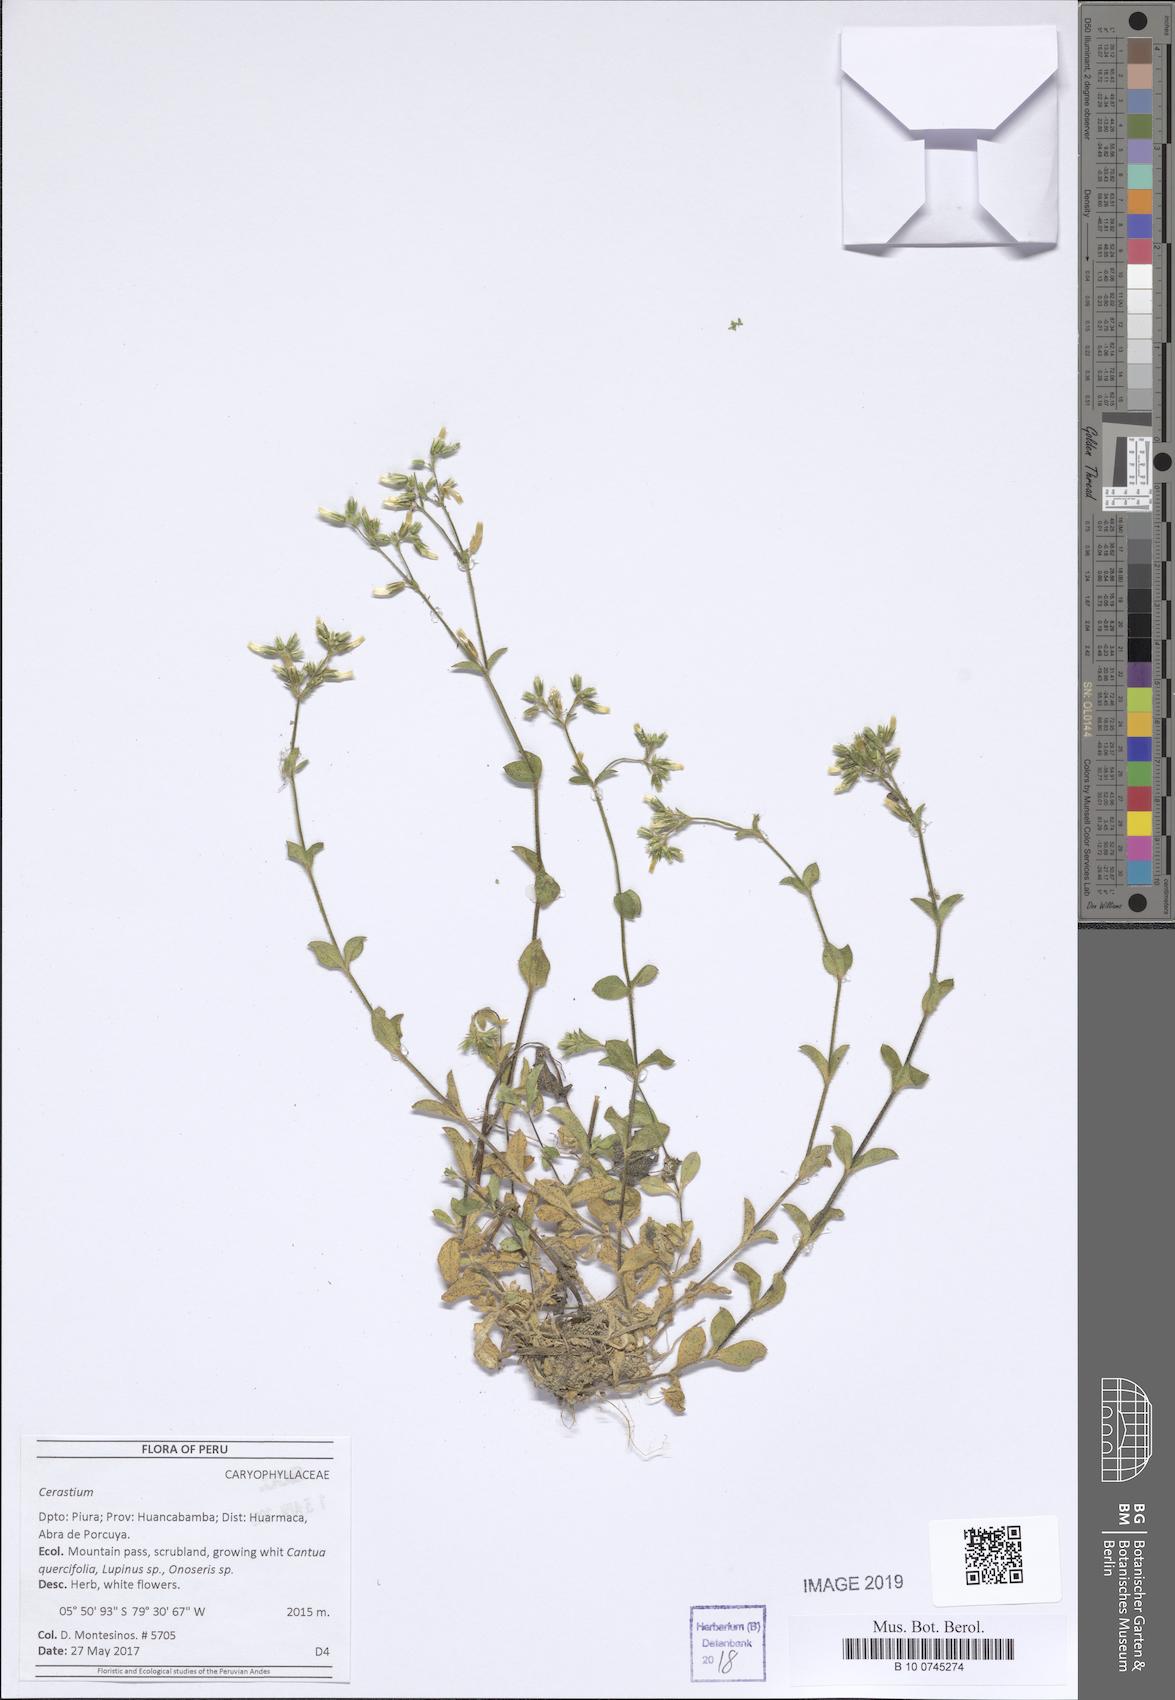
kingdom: Plantae
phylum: Tracheophyta
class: Magnoliopsida
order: Caryophyllales
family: Caryophyllaceae
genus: Cerastium
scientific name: Cerastium
